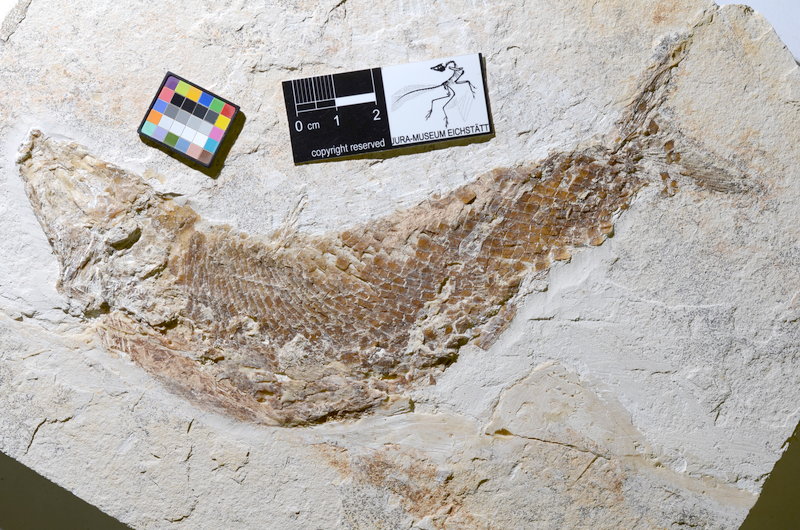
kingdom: Animalia
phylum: Chordata
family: Ankylophoridae
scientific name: Ankylophoridae
